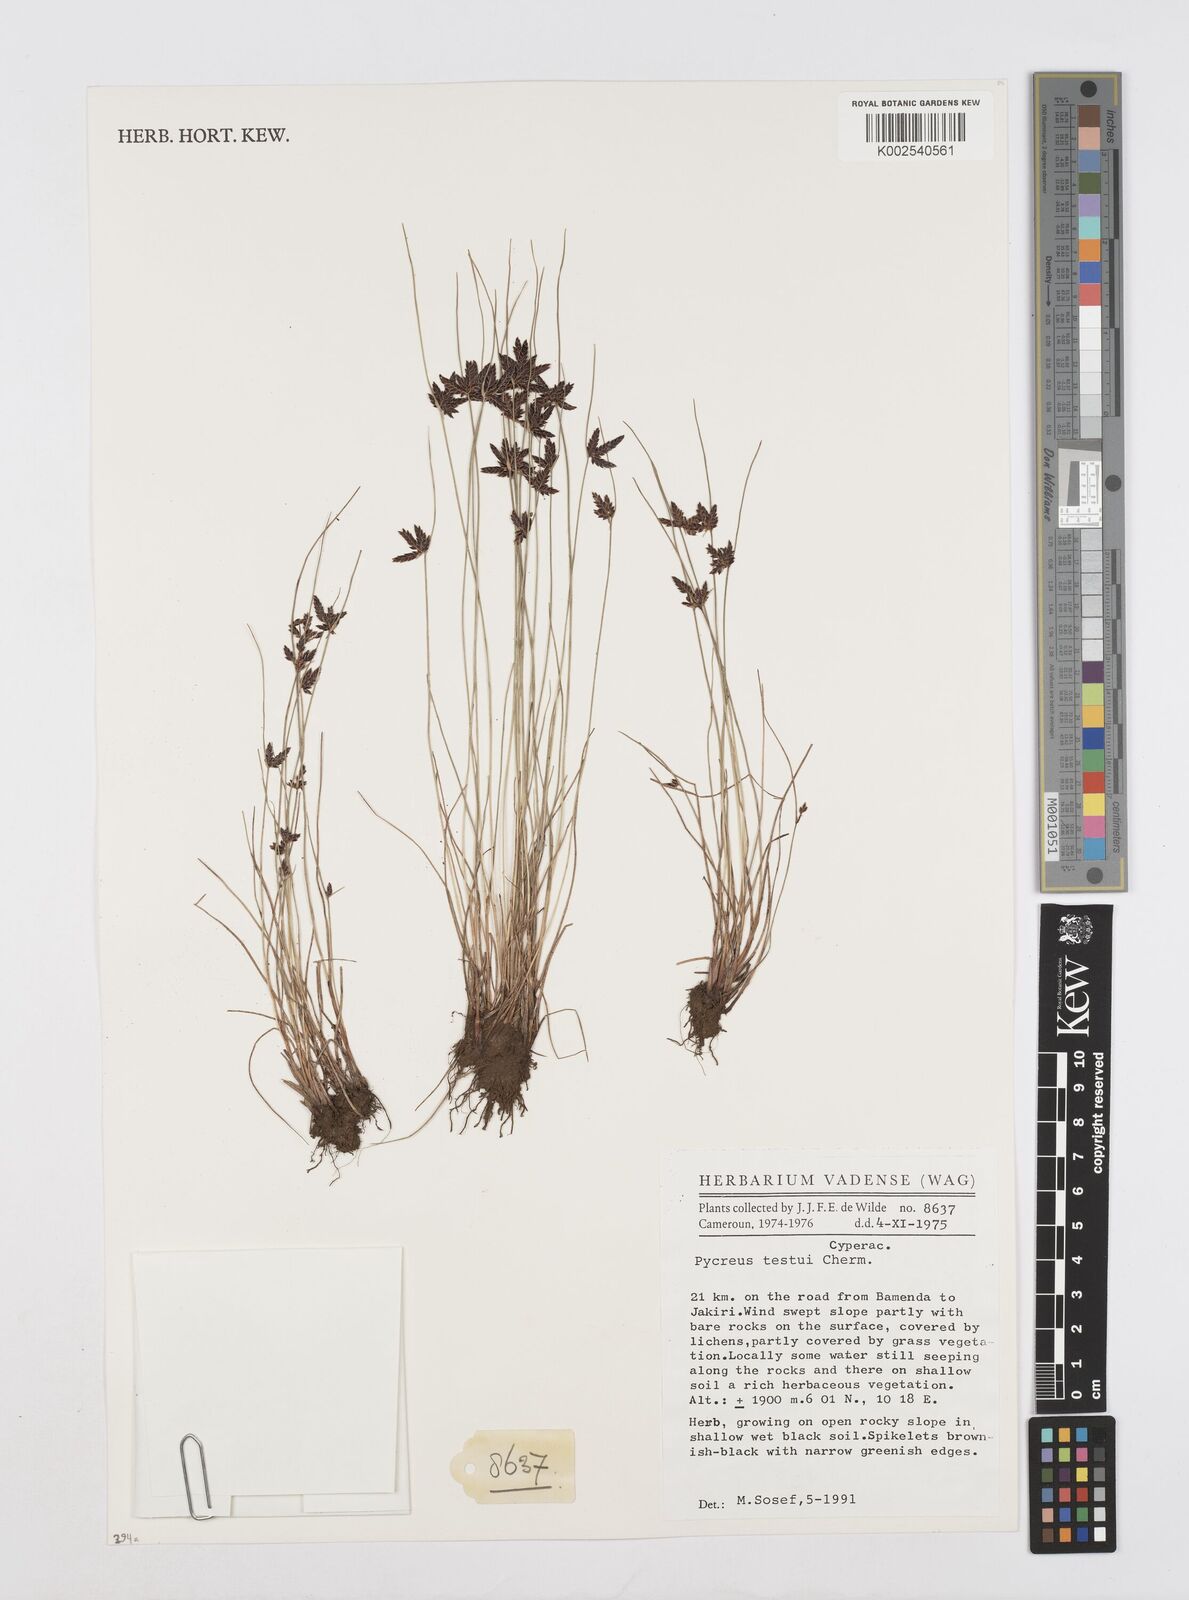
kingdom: Plantae
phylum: Tracheophyta
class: Liliopsida
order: Poales
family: Cyperaceae
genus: Cyperus
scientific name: Cyperus aethiops
